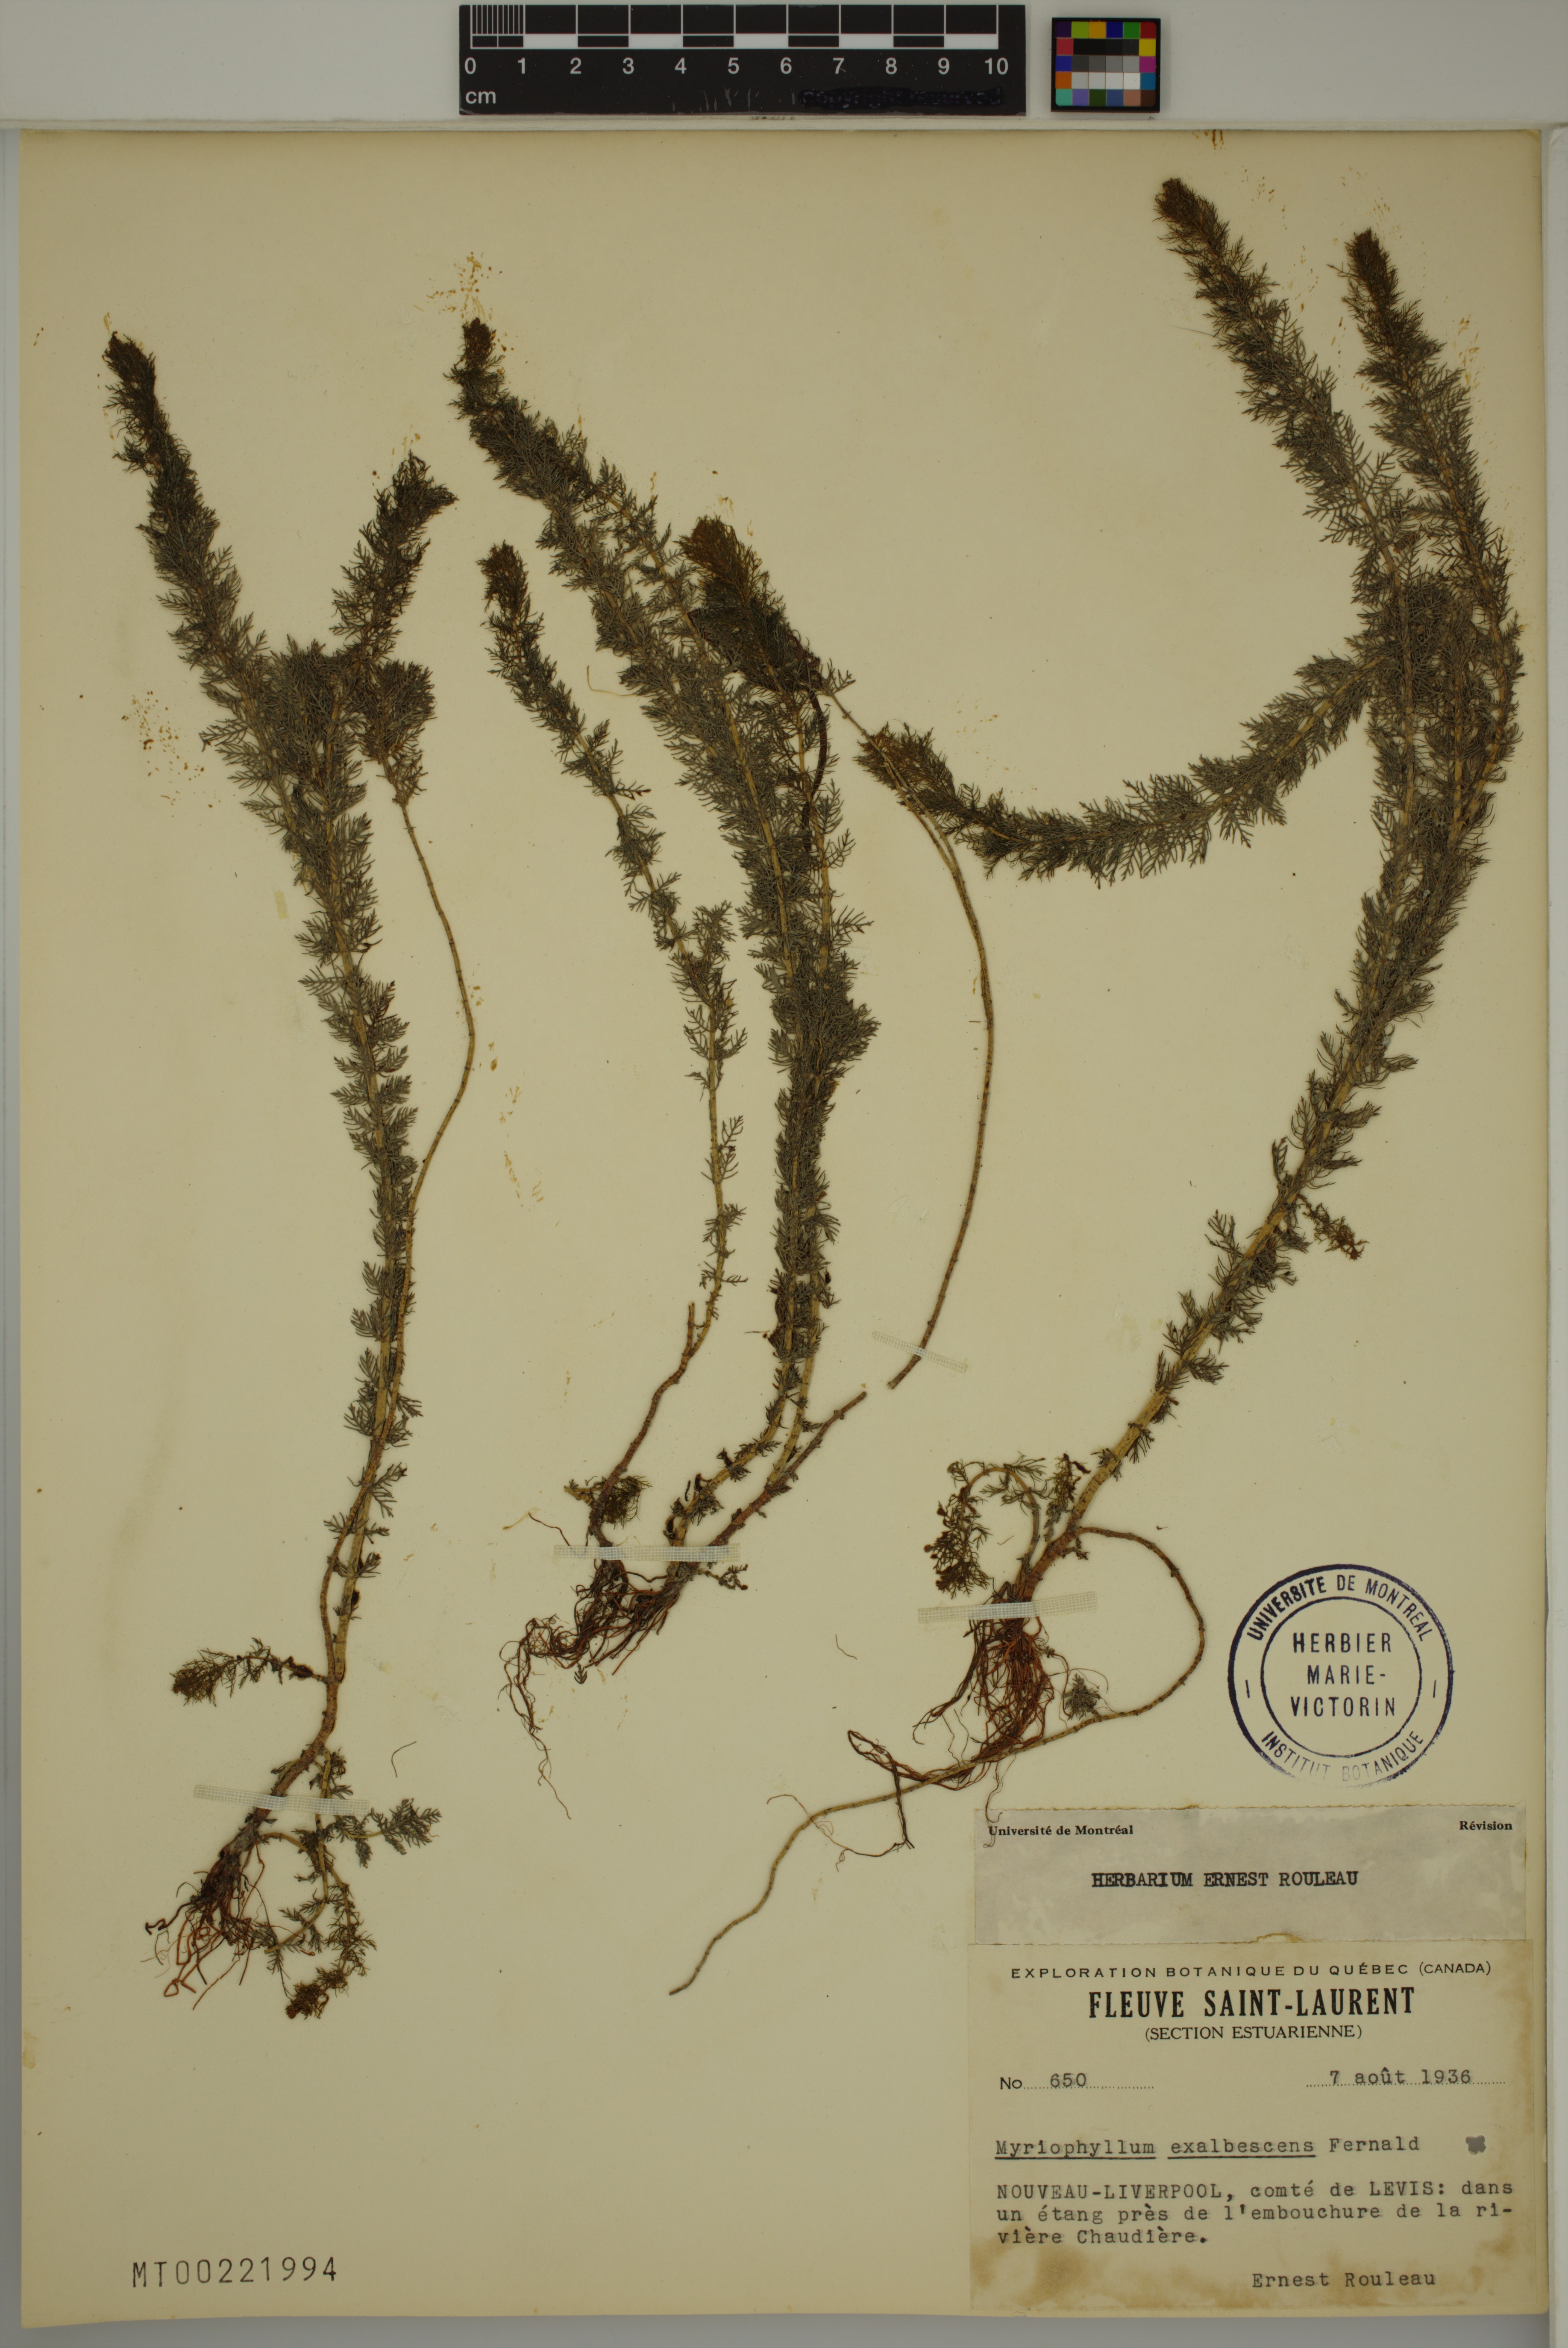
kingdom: Plantae
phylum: Tracheophyta
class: Magnoliopsida
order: Saxifragales
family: Haloragaceae
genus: Myriophyllum
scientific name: Myriophyllum sibiricum
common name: Siberian water-milfoil
